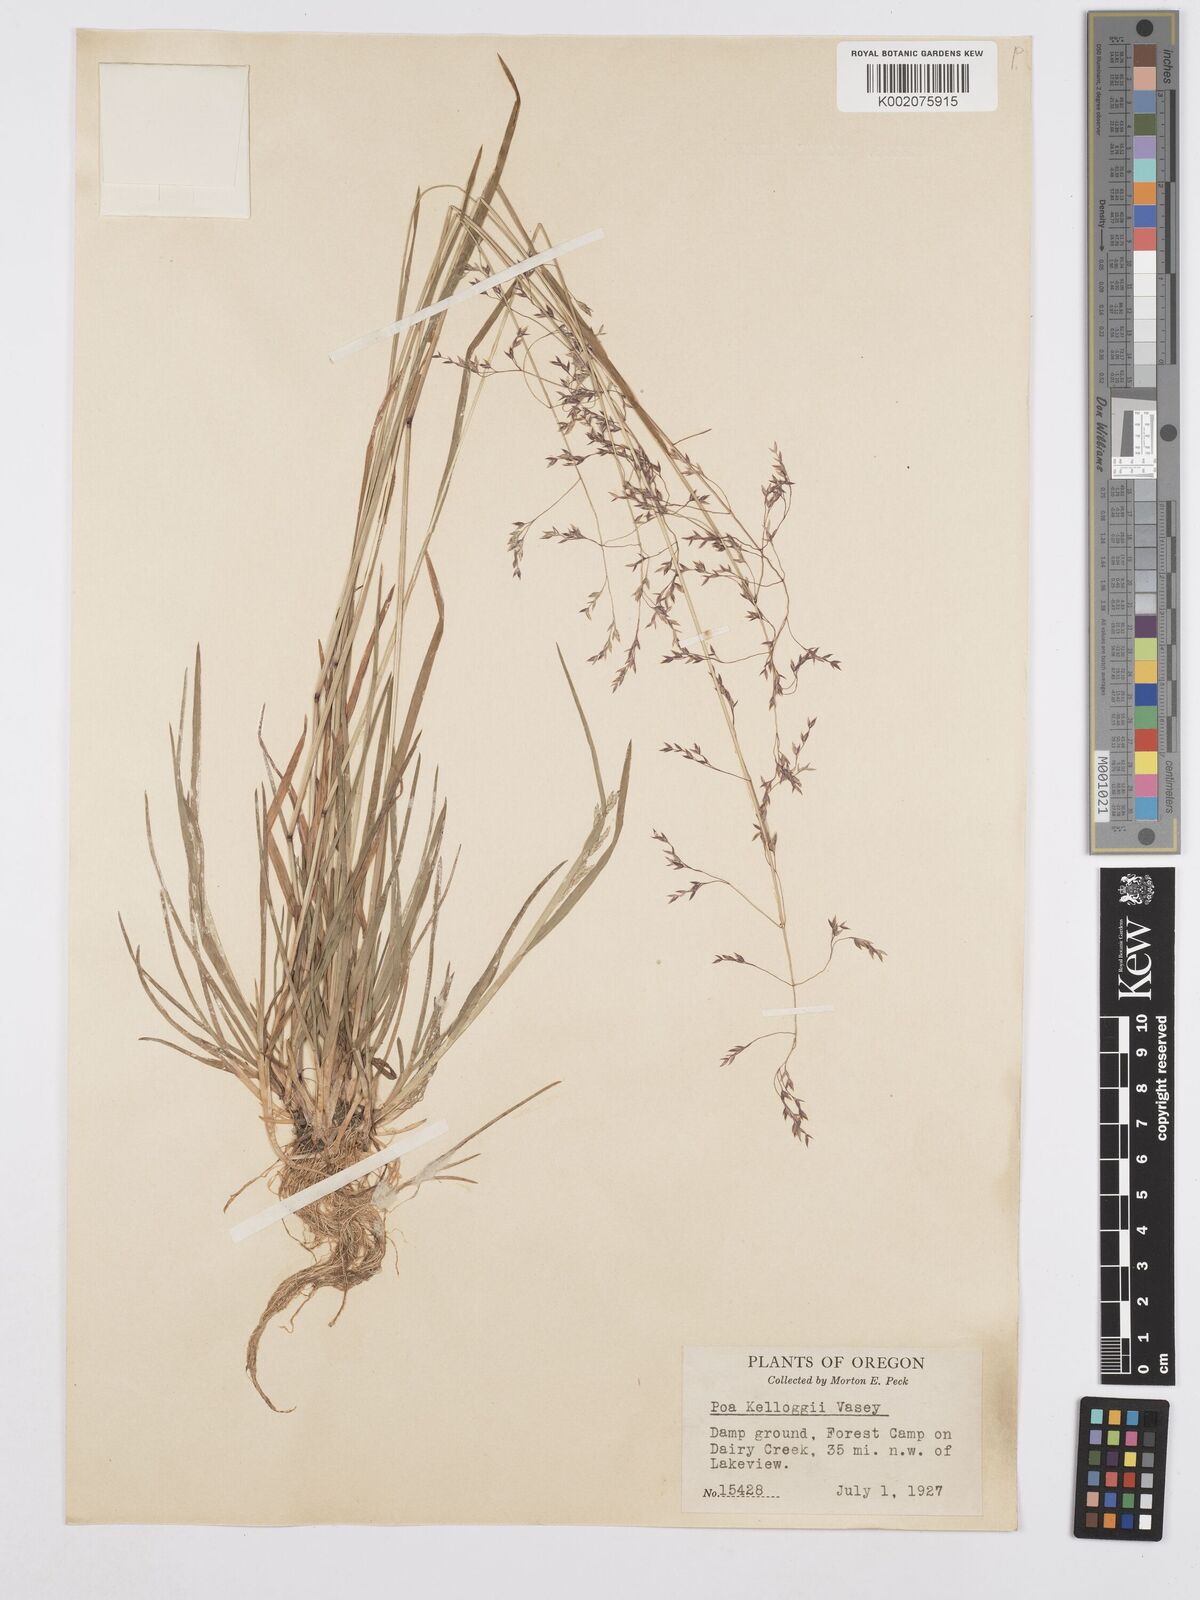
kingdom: Plantae
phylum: Tracheophyta
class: Liliopsida
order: Poales
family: Poaceae
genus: Poa
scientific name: Poa kelloggii
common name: Kellogg's bluegrass
